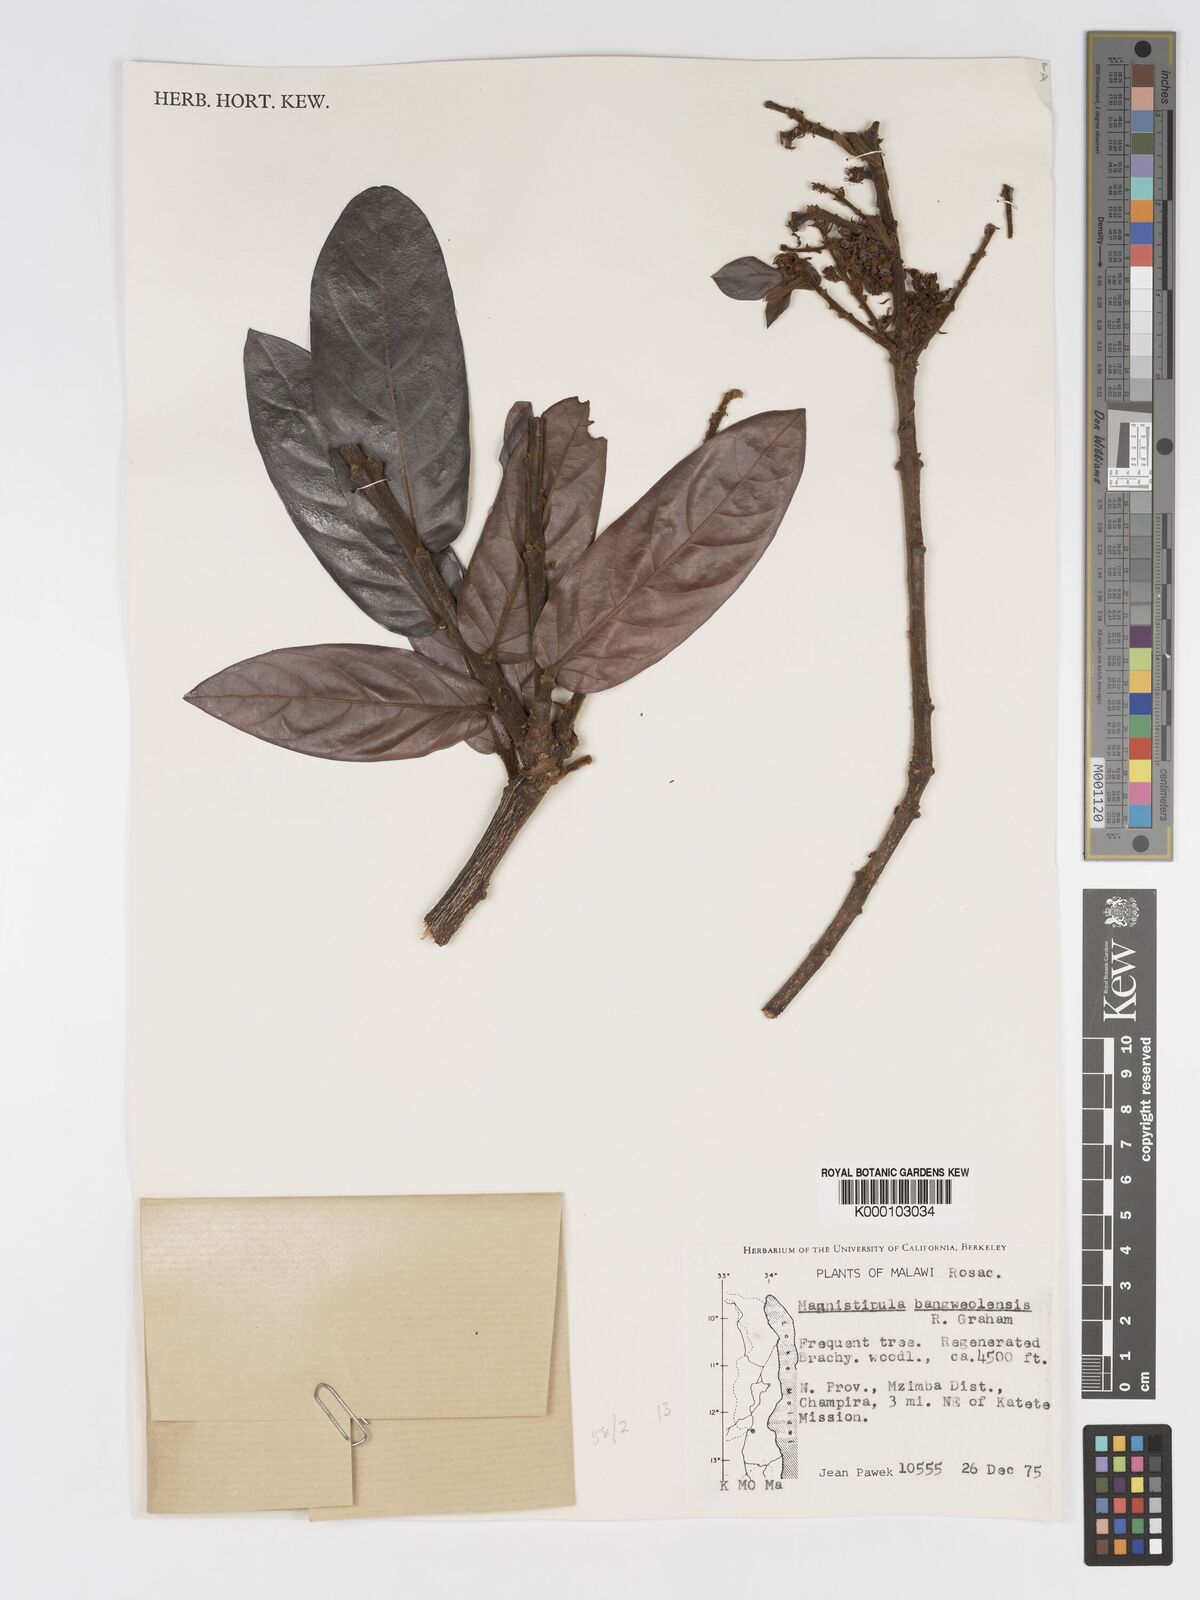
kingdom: Plantae
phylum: Tracheophyta
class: Magnoliopsida
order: Malpighiales
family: Chrysobalanaceae
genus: Magnistipula
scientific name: Magnistipula butayei
